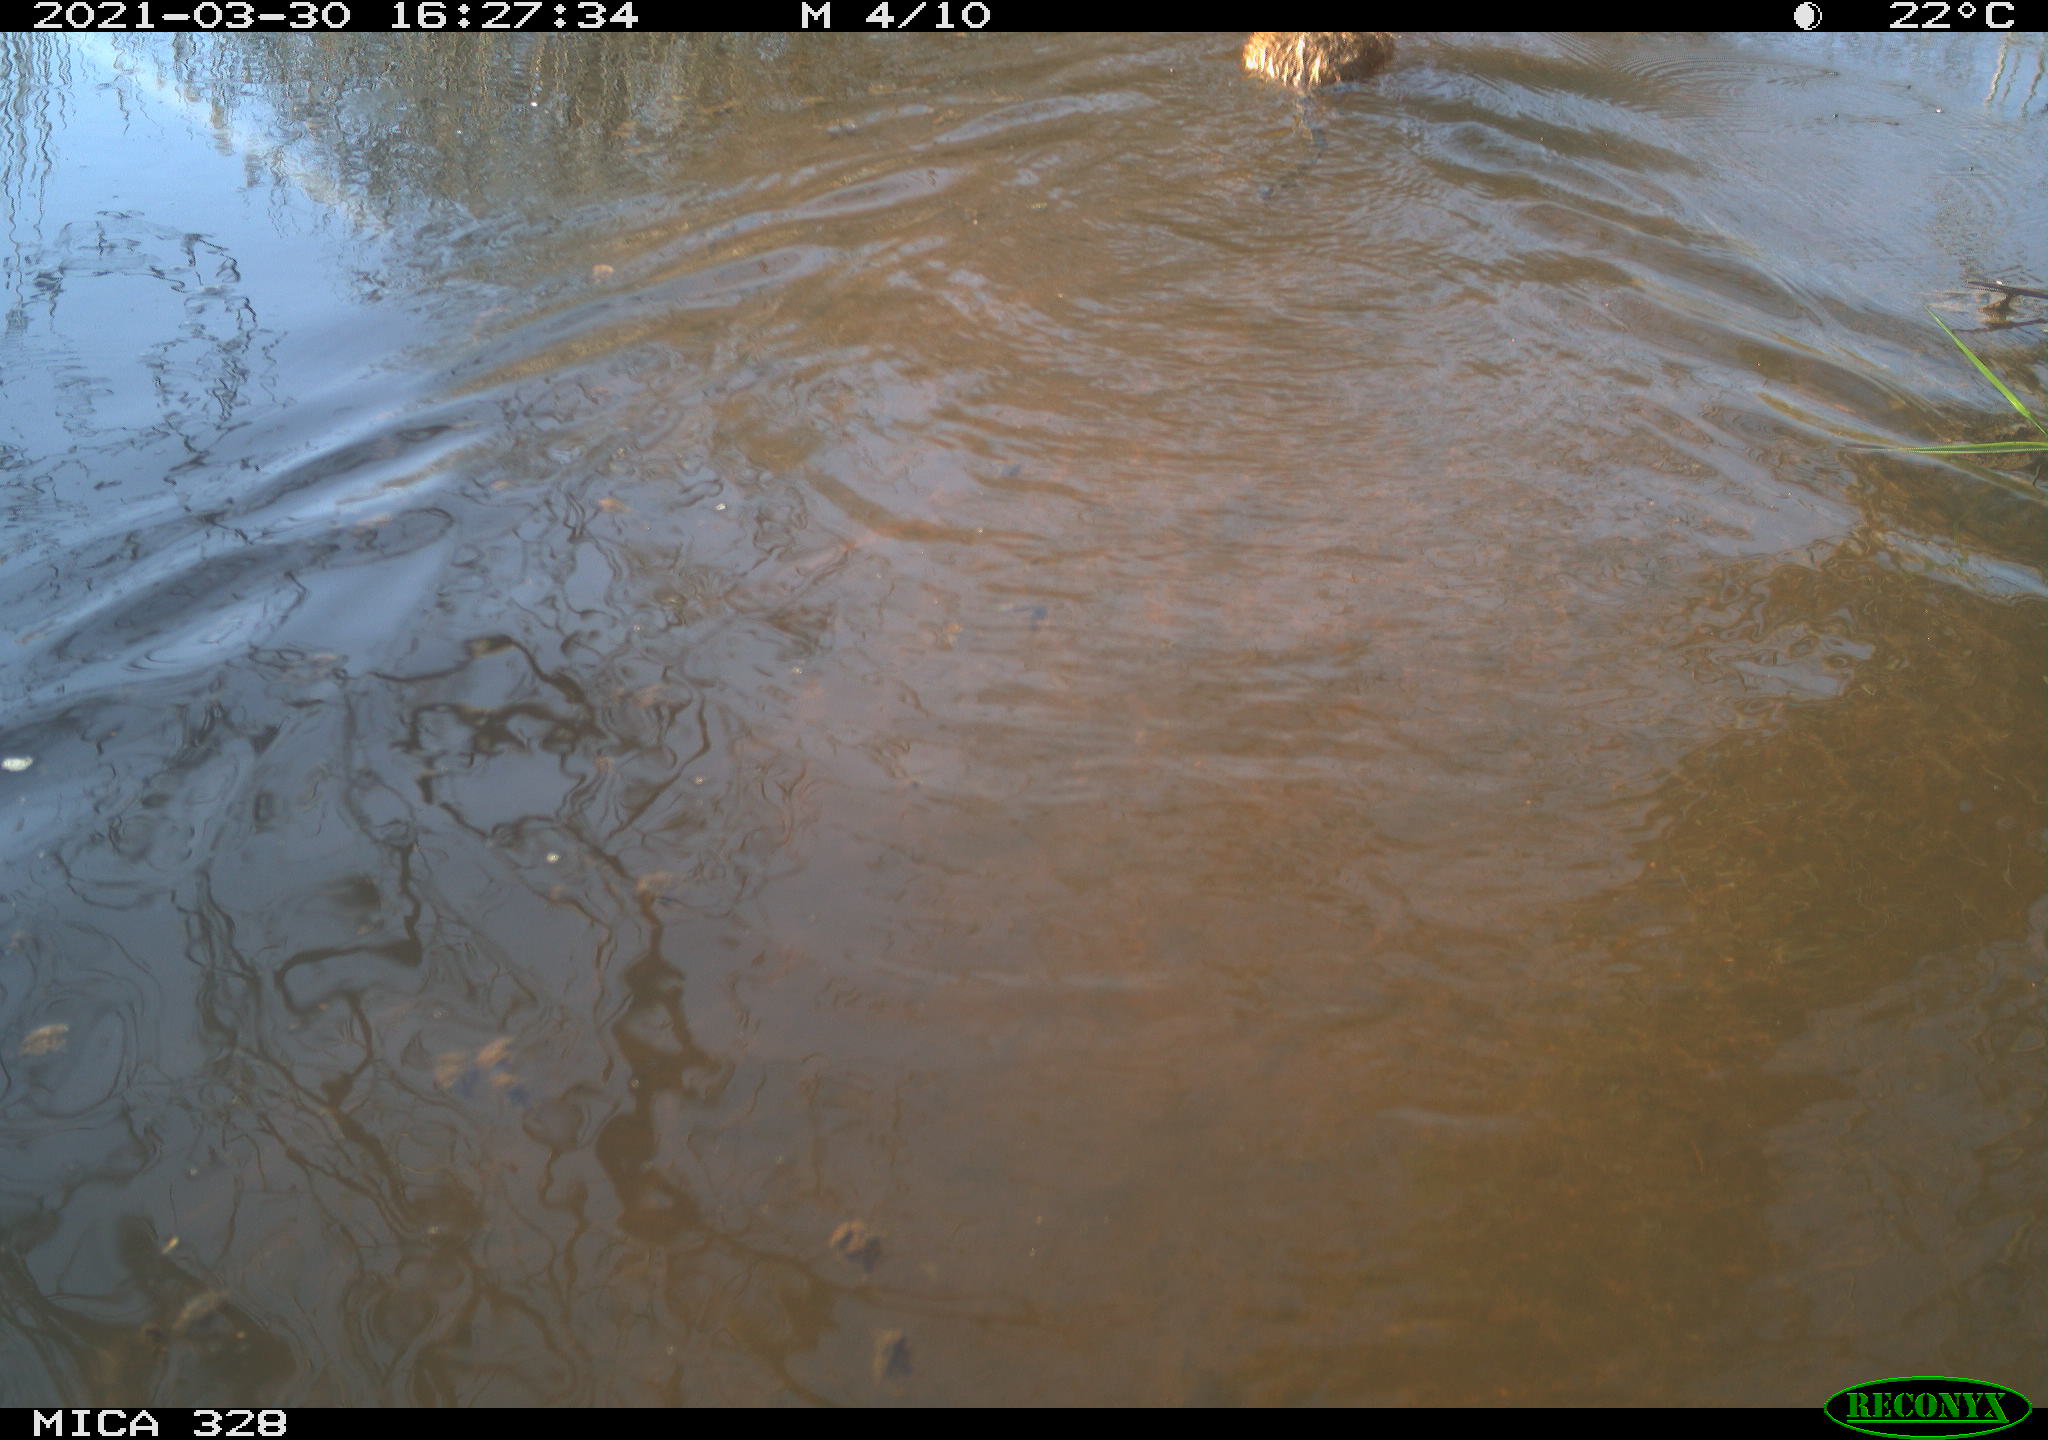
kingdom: Animalia
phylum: Chordata
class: Mammalia
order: Rodentia
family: Cricetidae
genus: Ondatra
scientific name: Ondatra zibethicus
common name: Muskrat
